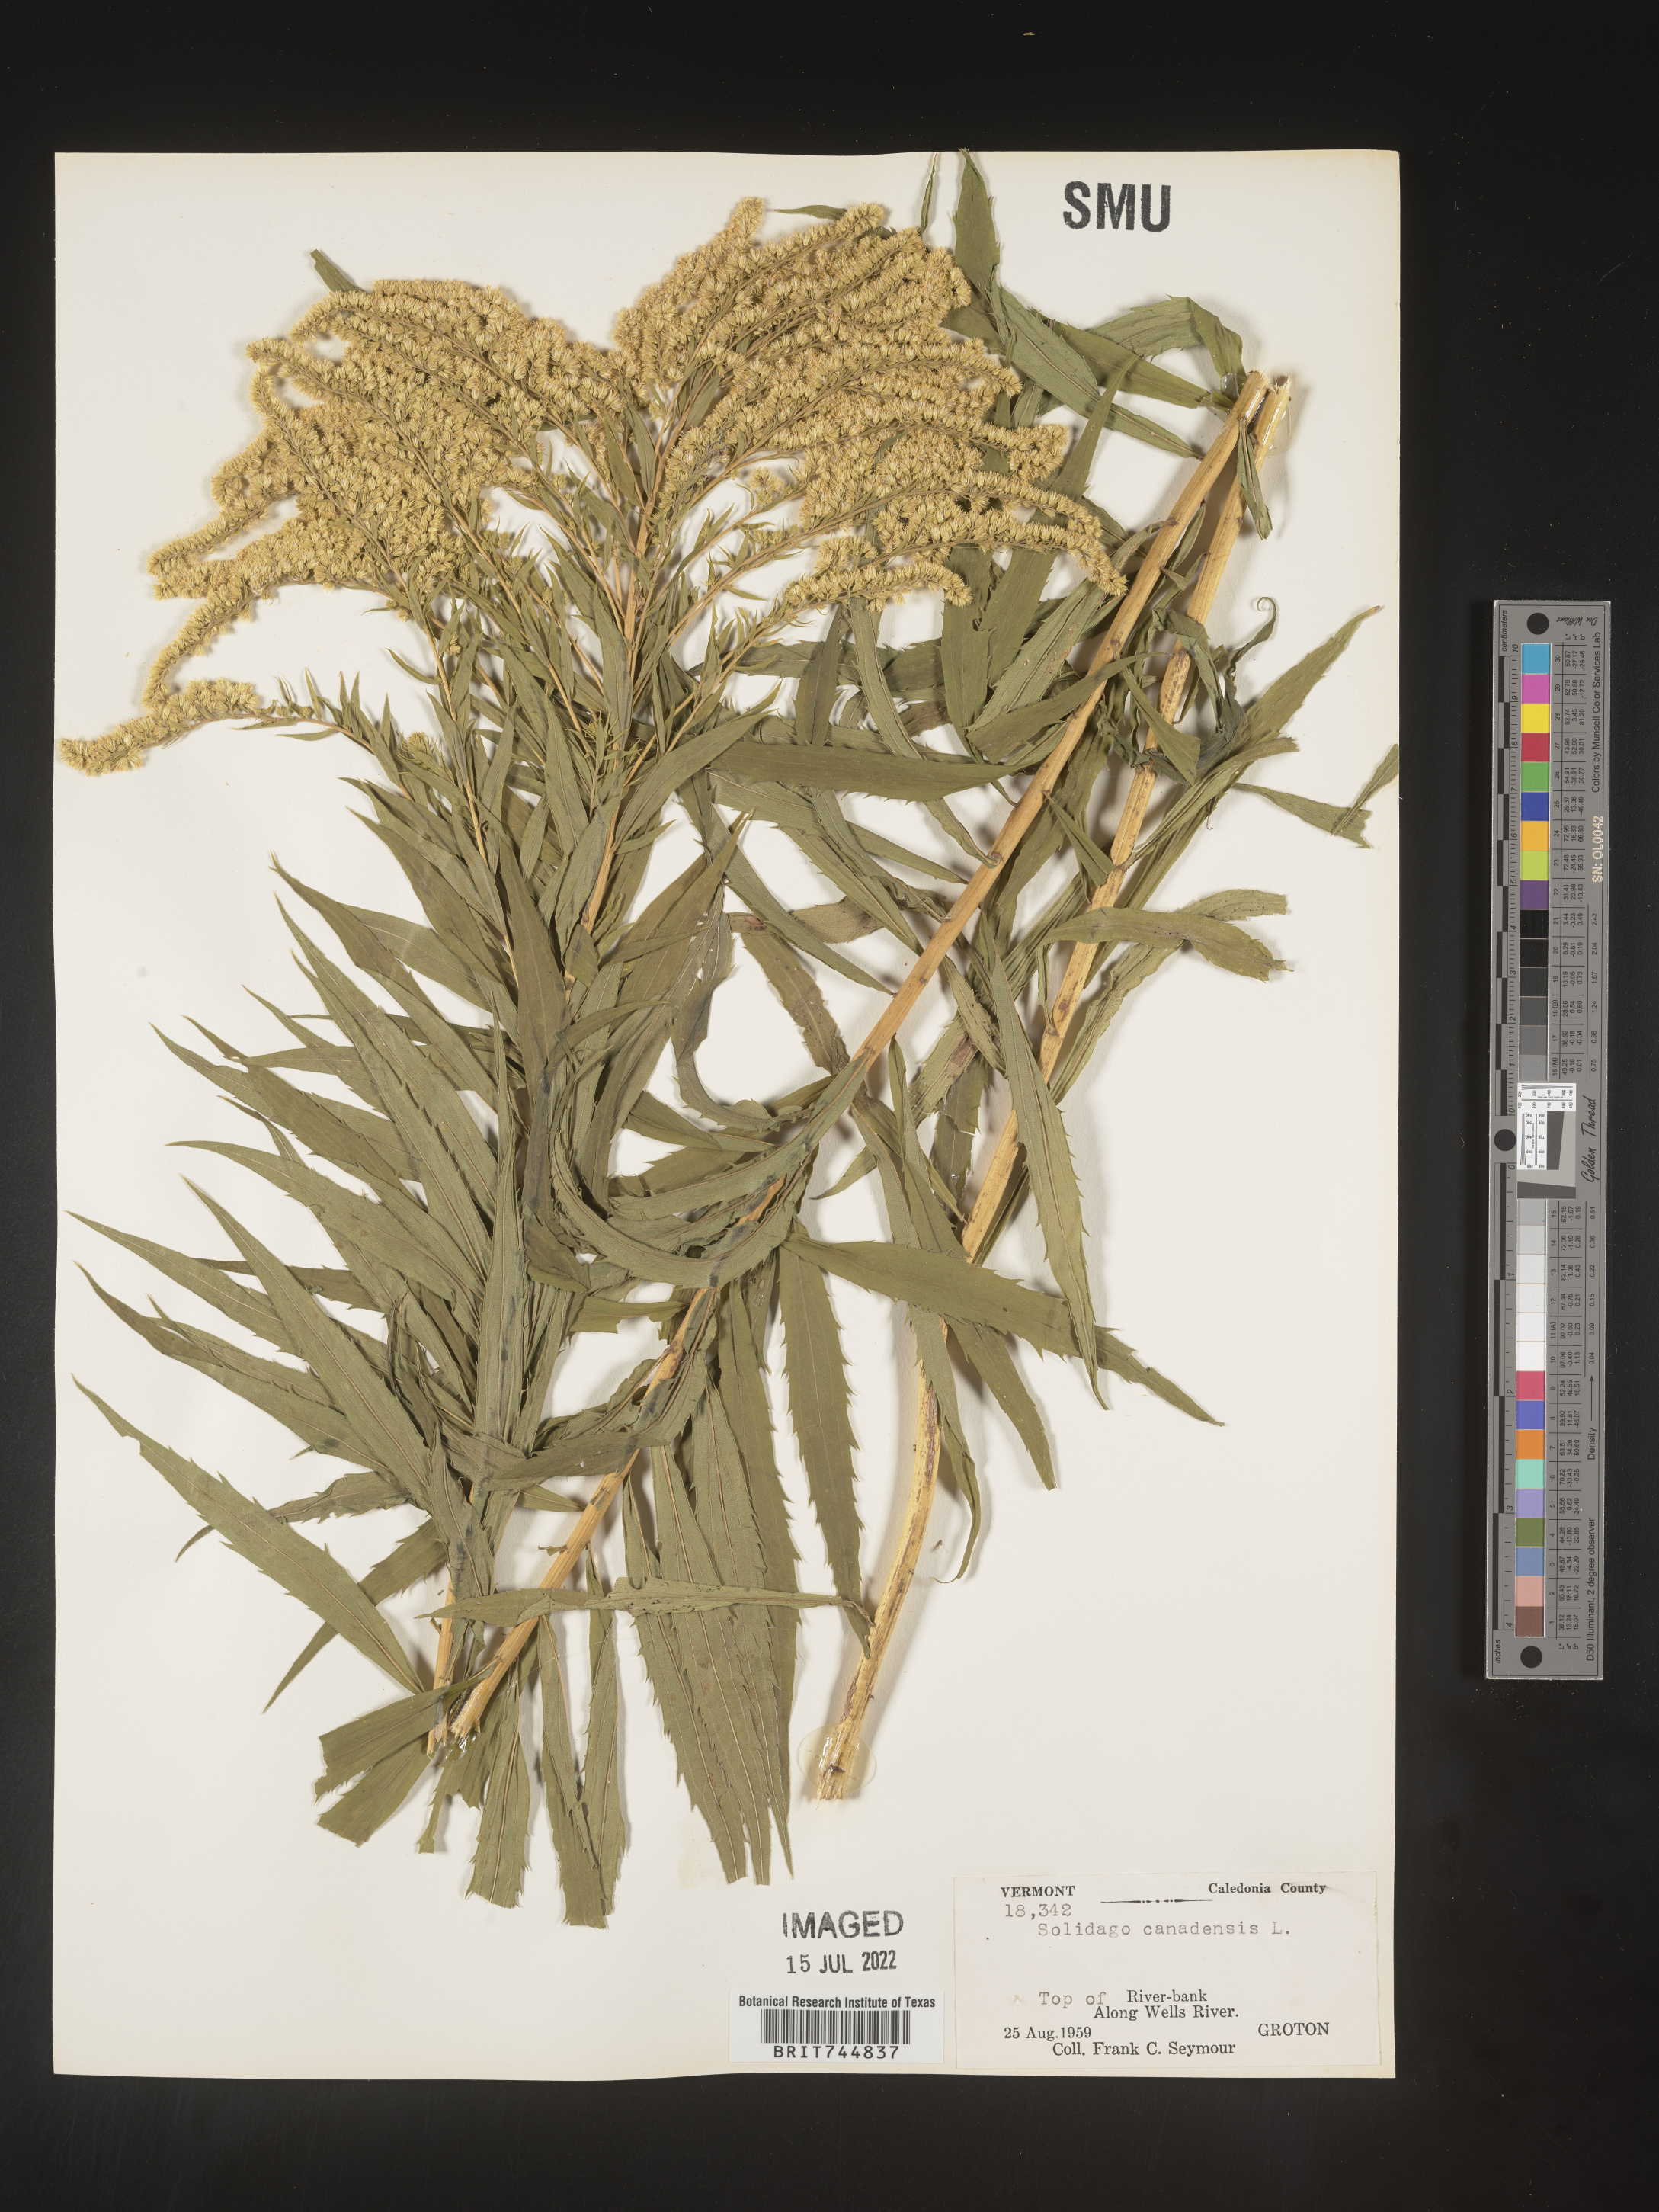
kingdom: Plantae
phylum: Tracheophyta
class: Magnoliopsida
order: Asterales
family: Asteraceae
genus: Solidago
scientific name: Solidago canadensis
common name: Canada goldenrod
